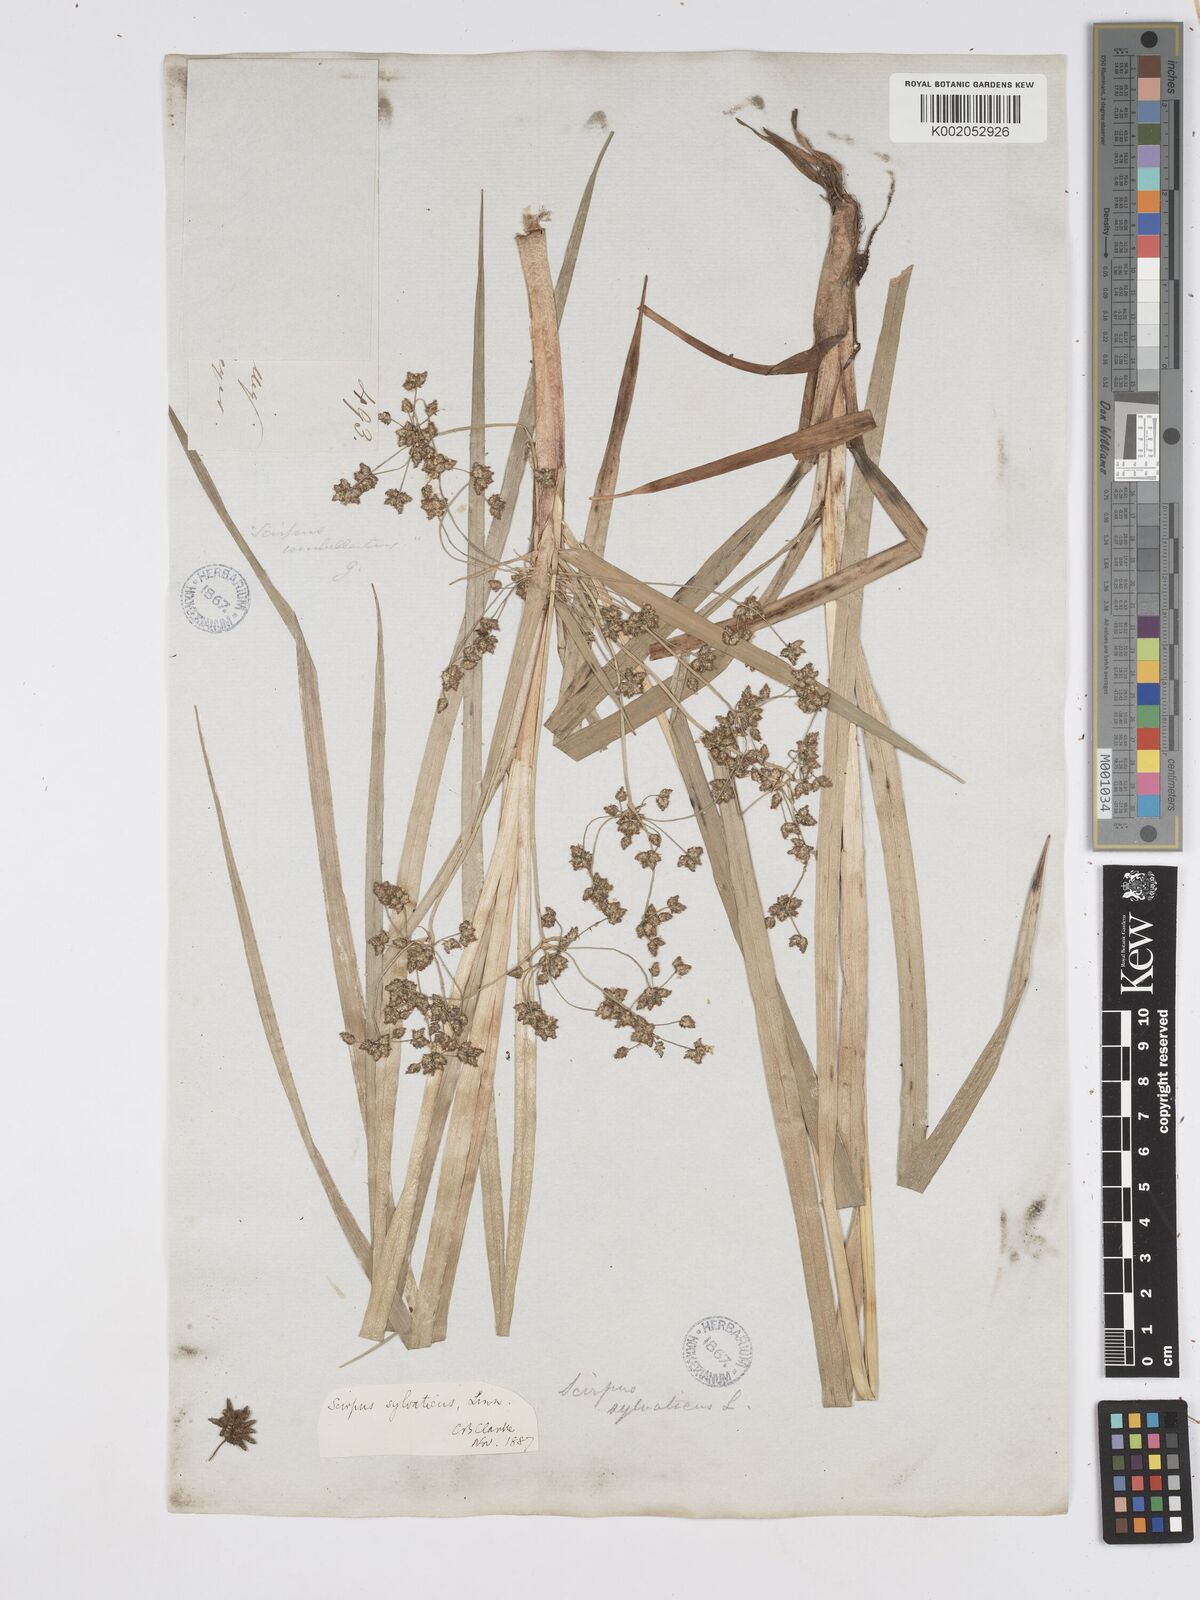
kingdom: Plantae
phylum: Tracheophyta
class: Liliopsida
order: Poales
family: Cyperaceae
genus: Scirpus
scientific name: Scirpus sylvaticus
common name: Wood club-rush
